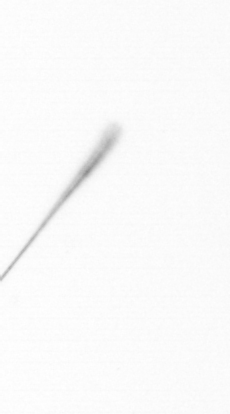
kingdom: Chromista
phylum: Ochrophyta
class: Bacillariophyceae
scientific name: Bacillariophyceae
